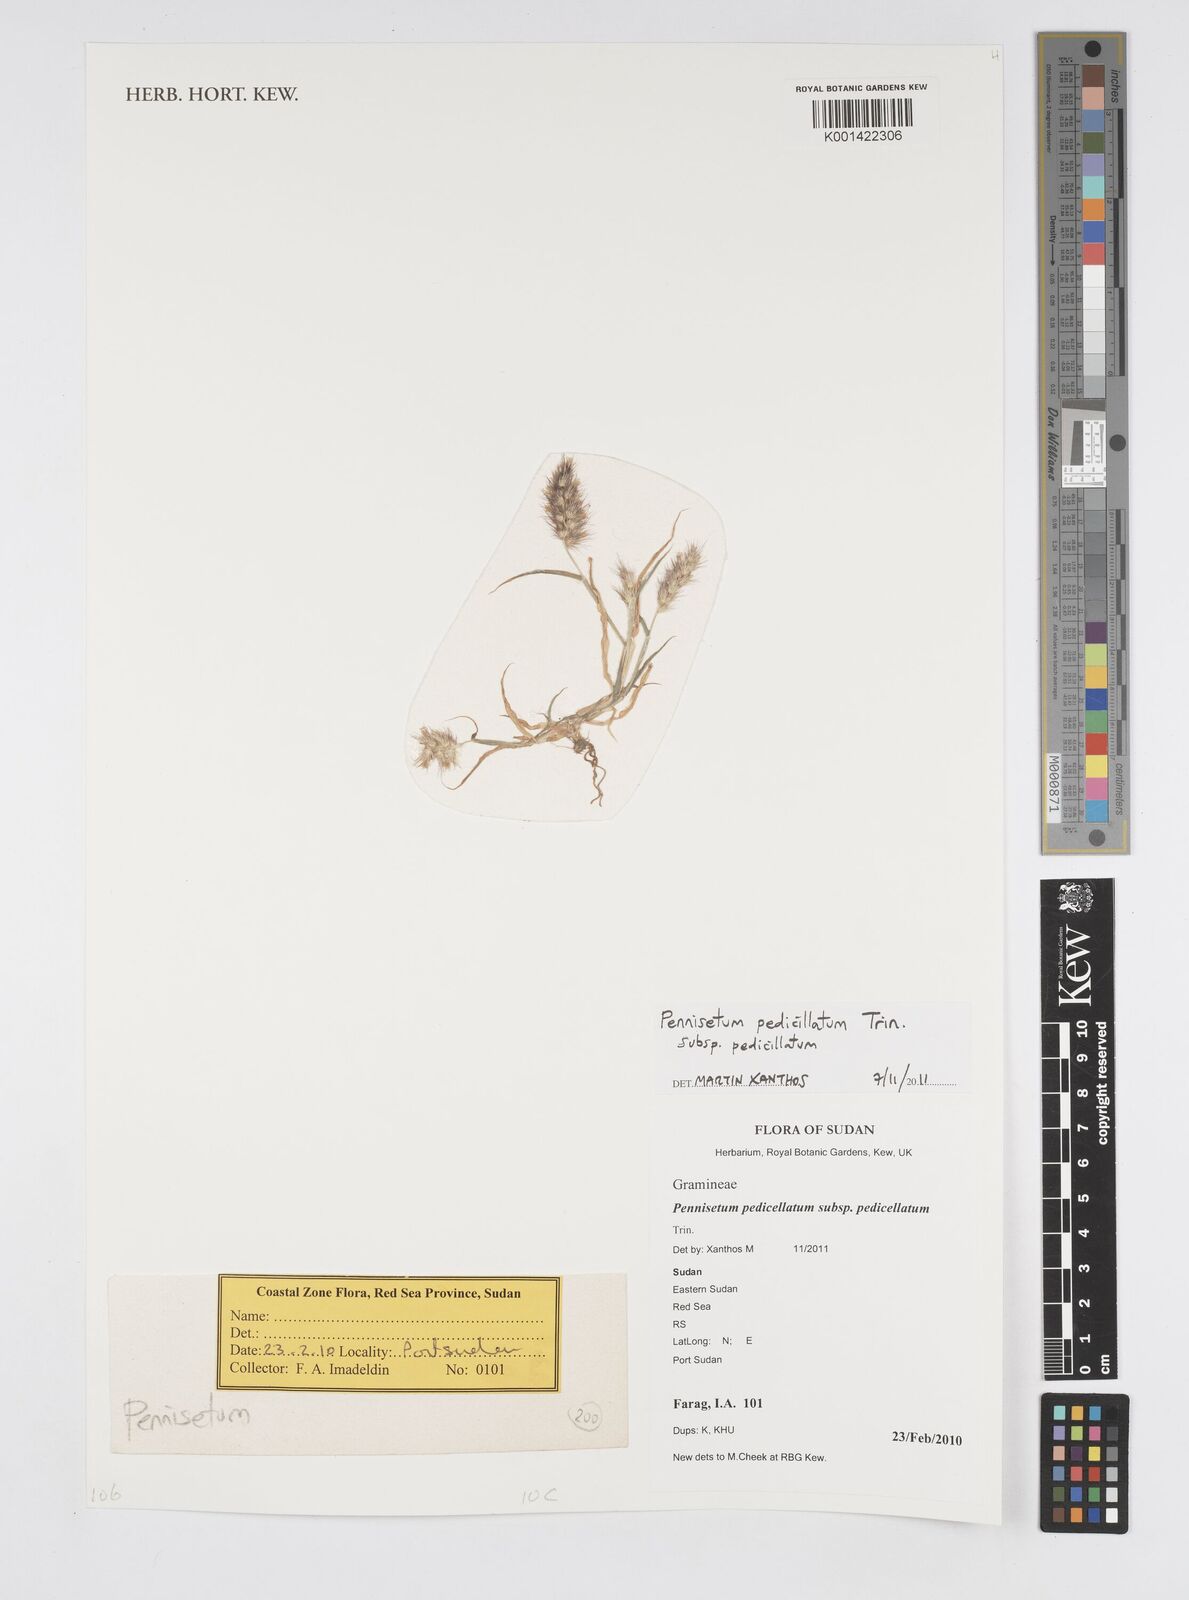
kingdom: Plantae
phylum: Tracheophyta
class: Liliopsida
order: Poales
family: Poaceae
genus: Cenchrus
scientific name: Cenchrus pedicellatus
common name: Hairy fountain grass
